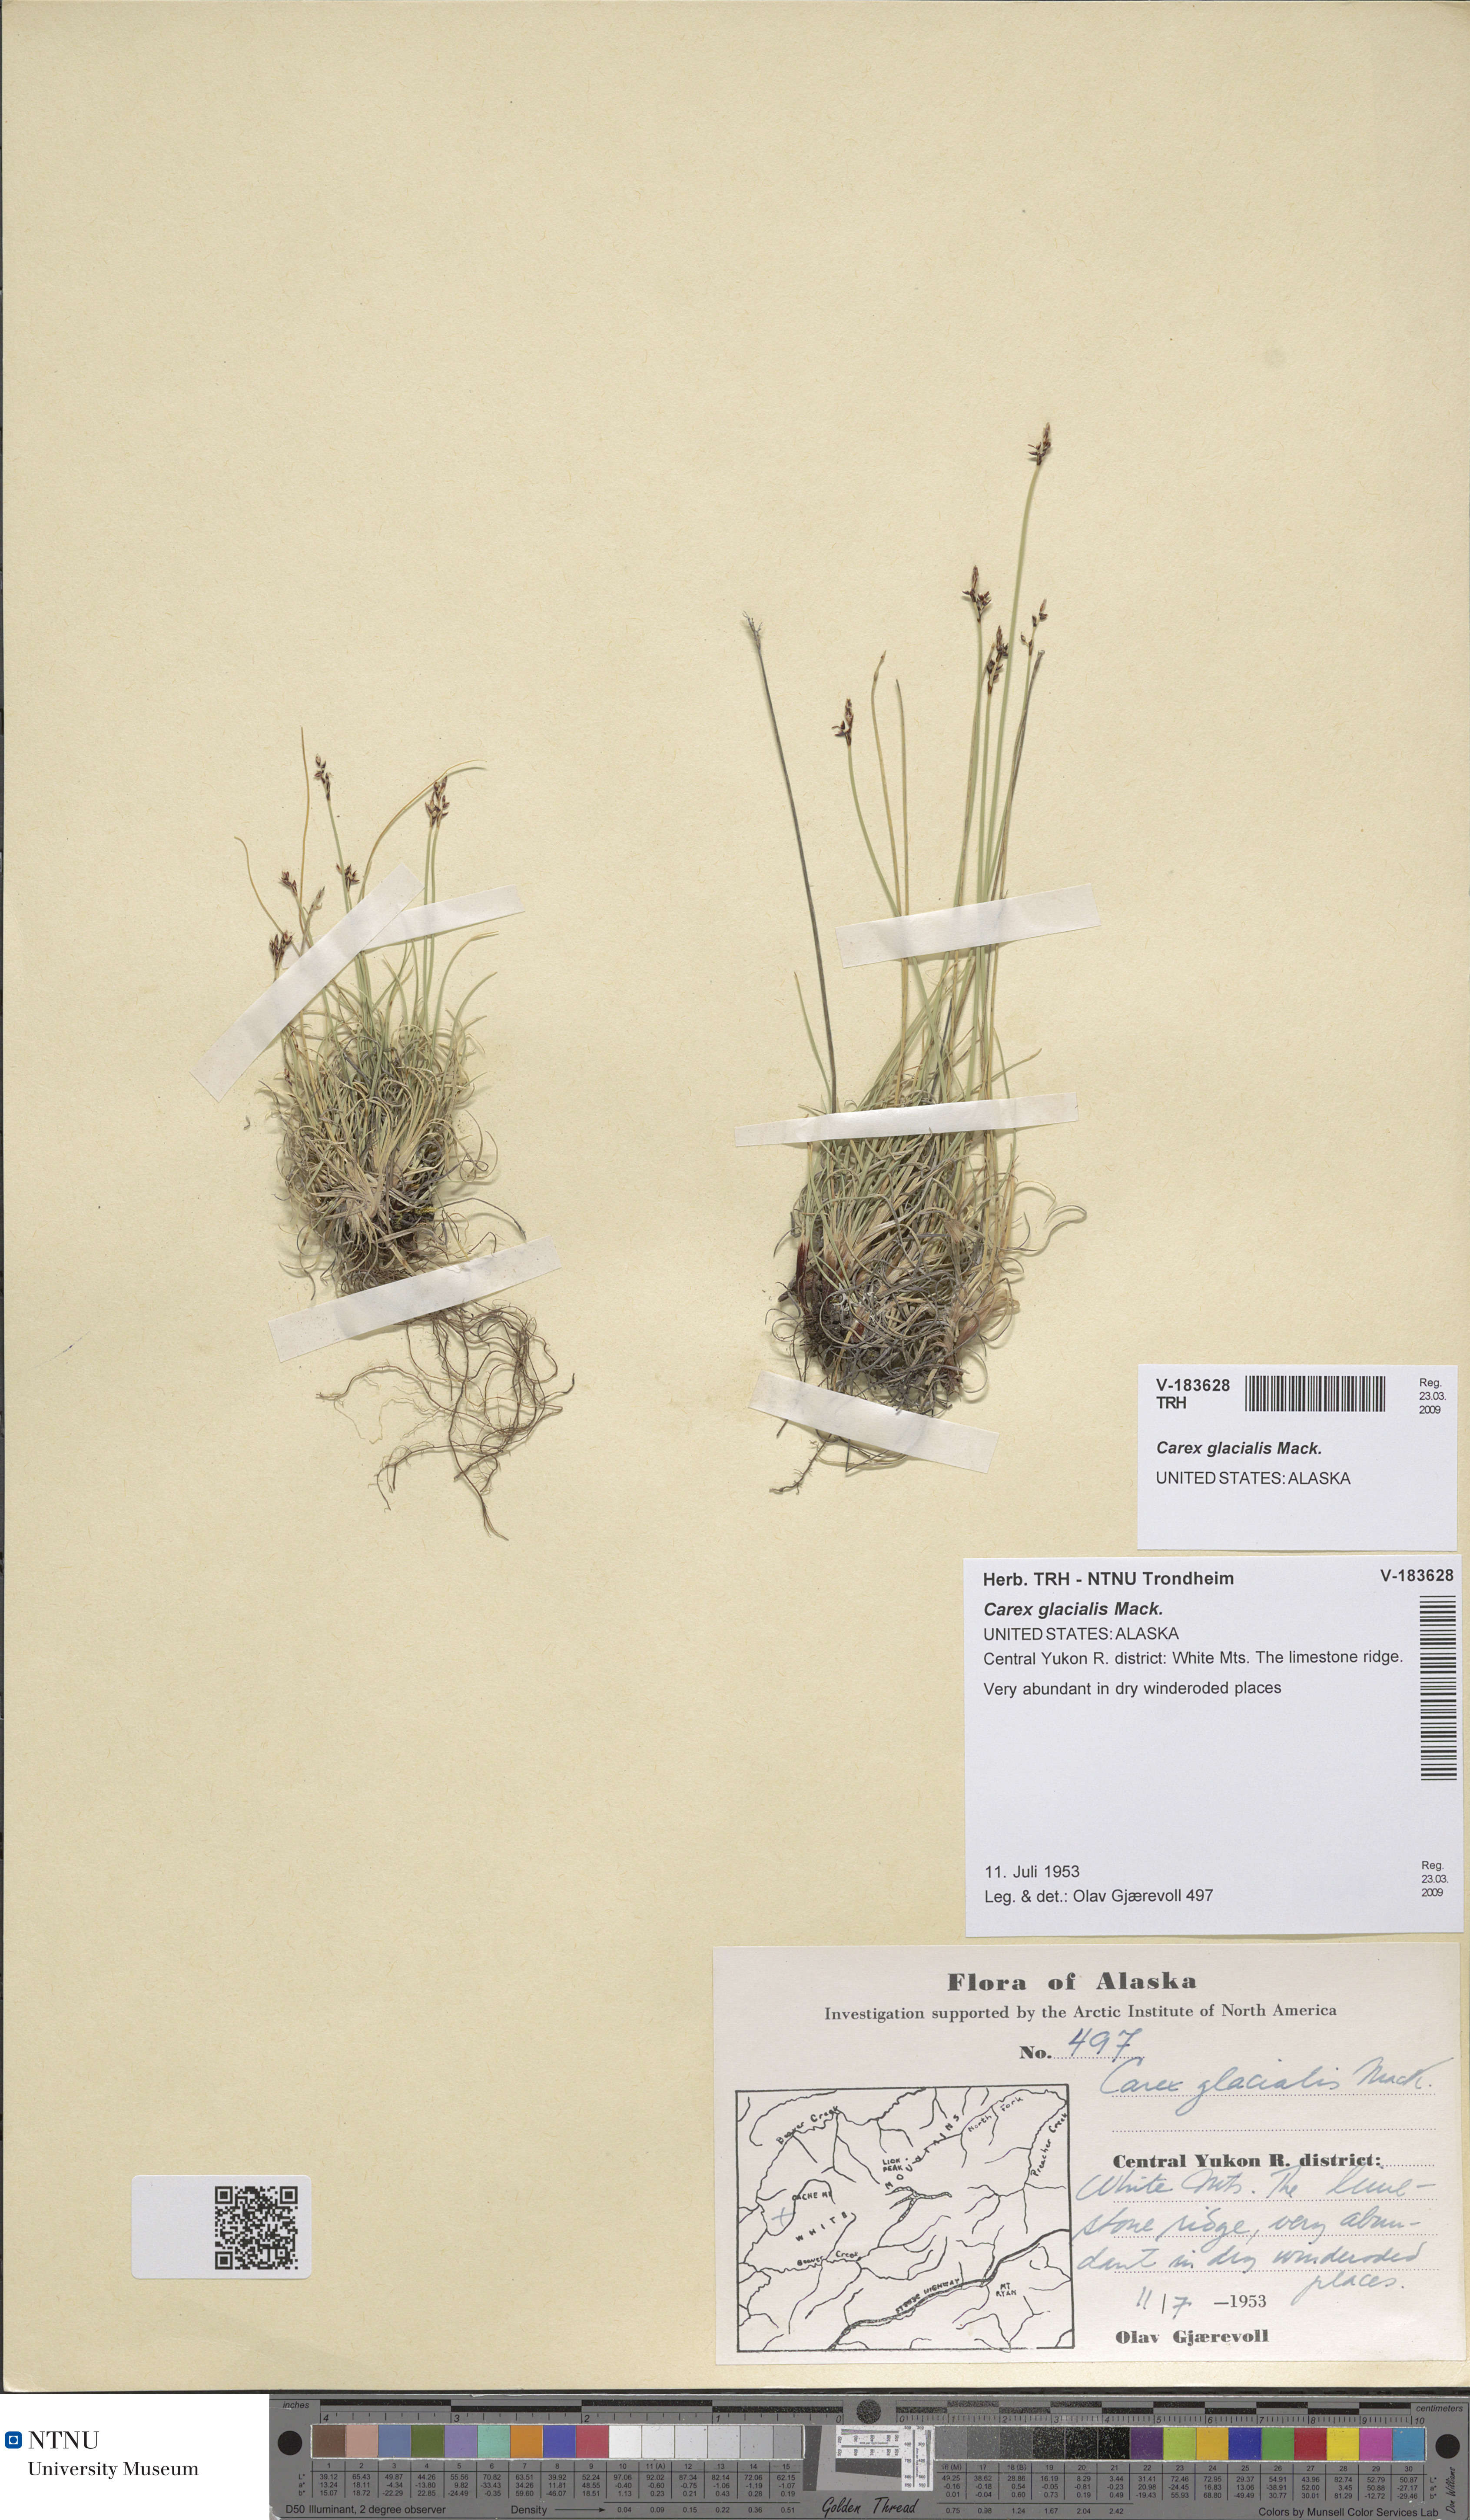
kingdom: Plantae
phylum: Tracheophyta
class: Liliopsida
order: Poales
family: Cyperaceae
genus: Carex
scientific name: Carex glacialis
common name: Newfoundland sedge
